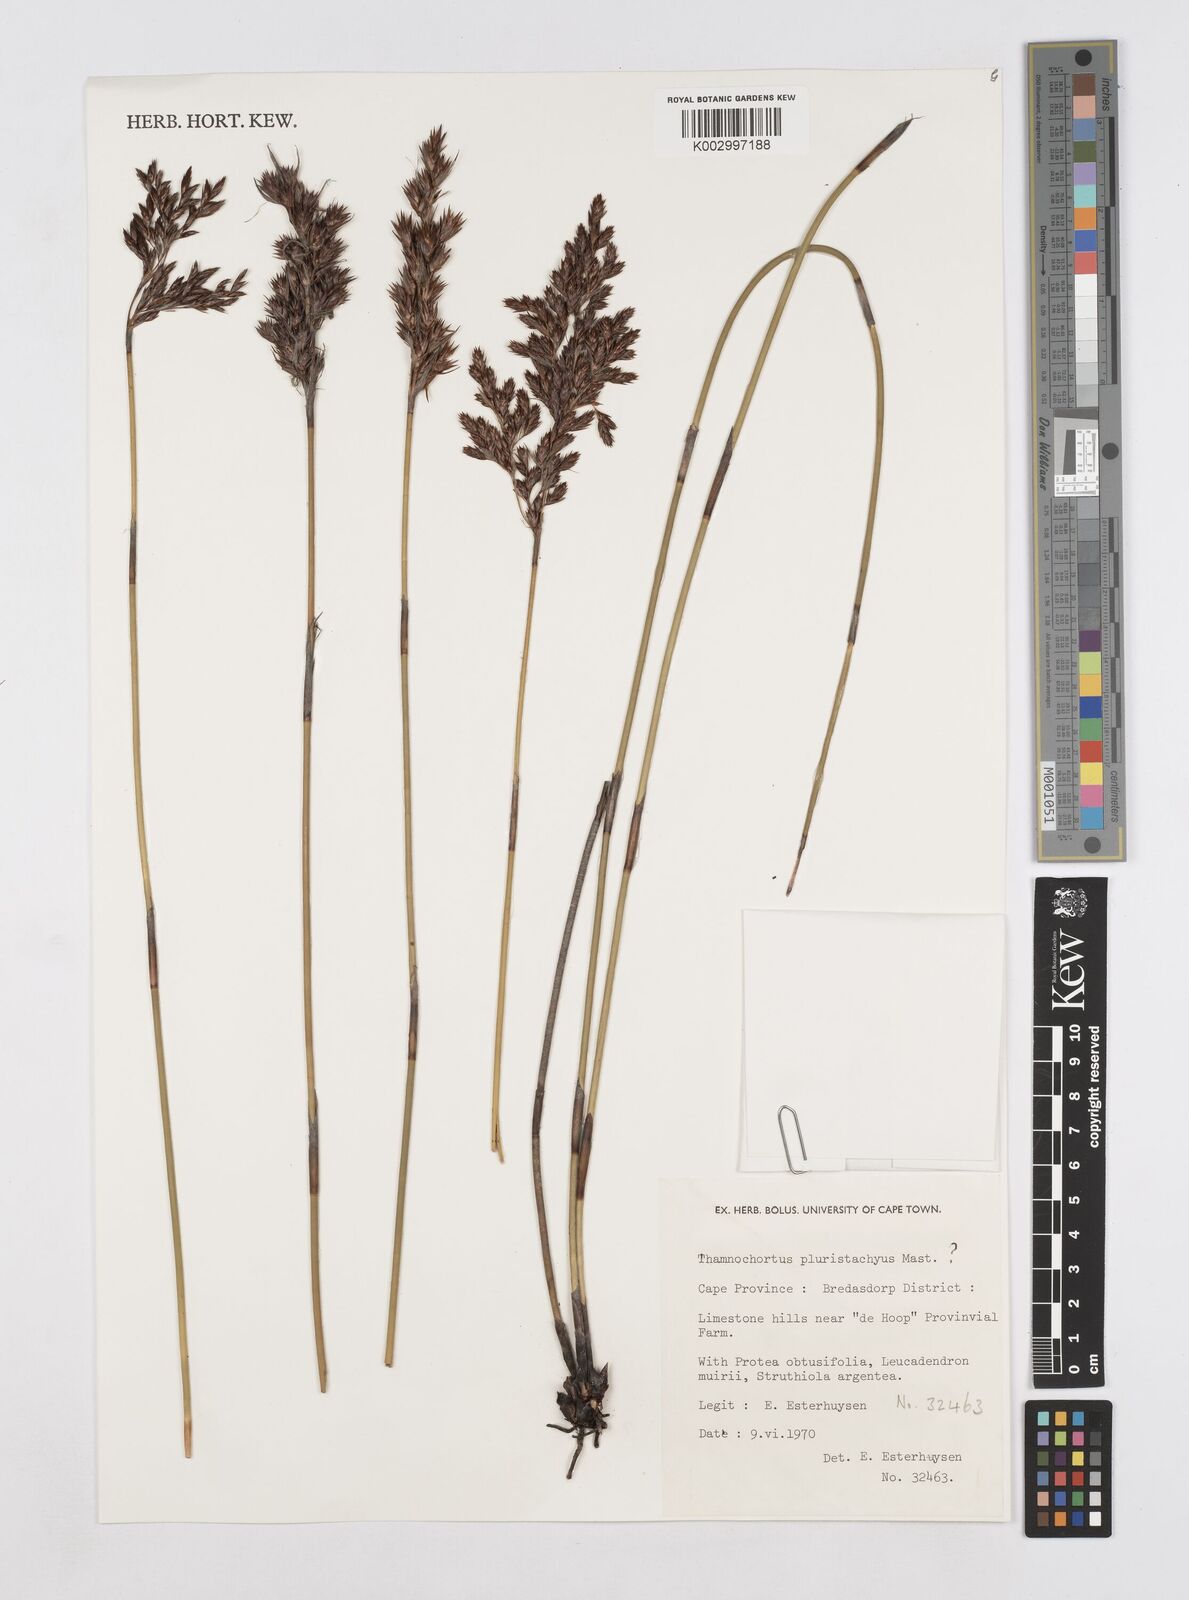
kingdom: Plantae
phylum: Tracheophyta
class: Liliopsida
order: Poales
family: Restionaceae
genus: Thamnochortus
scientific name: Thamnochortus pluristachyus
